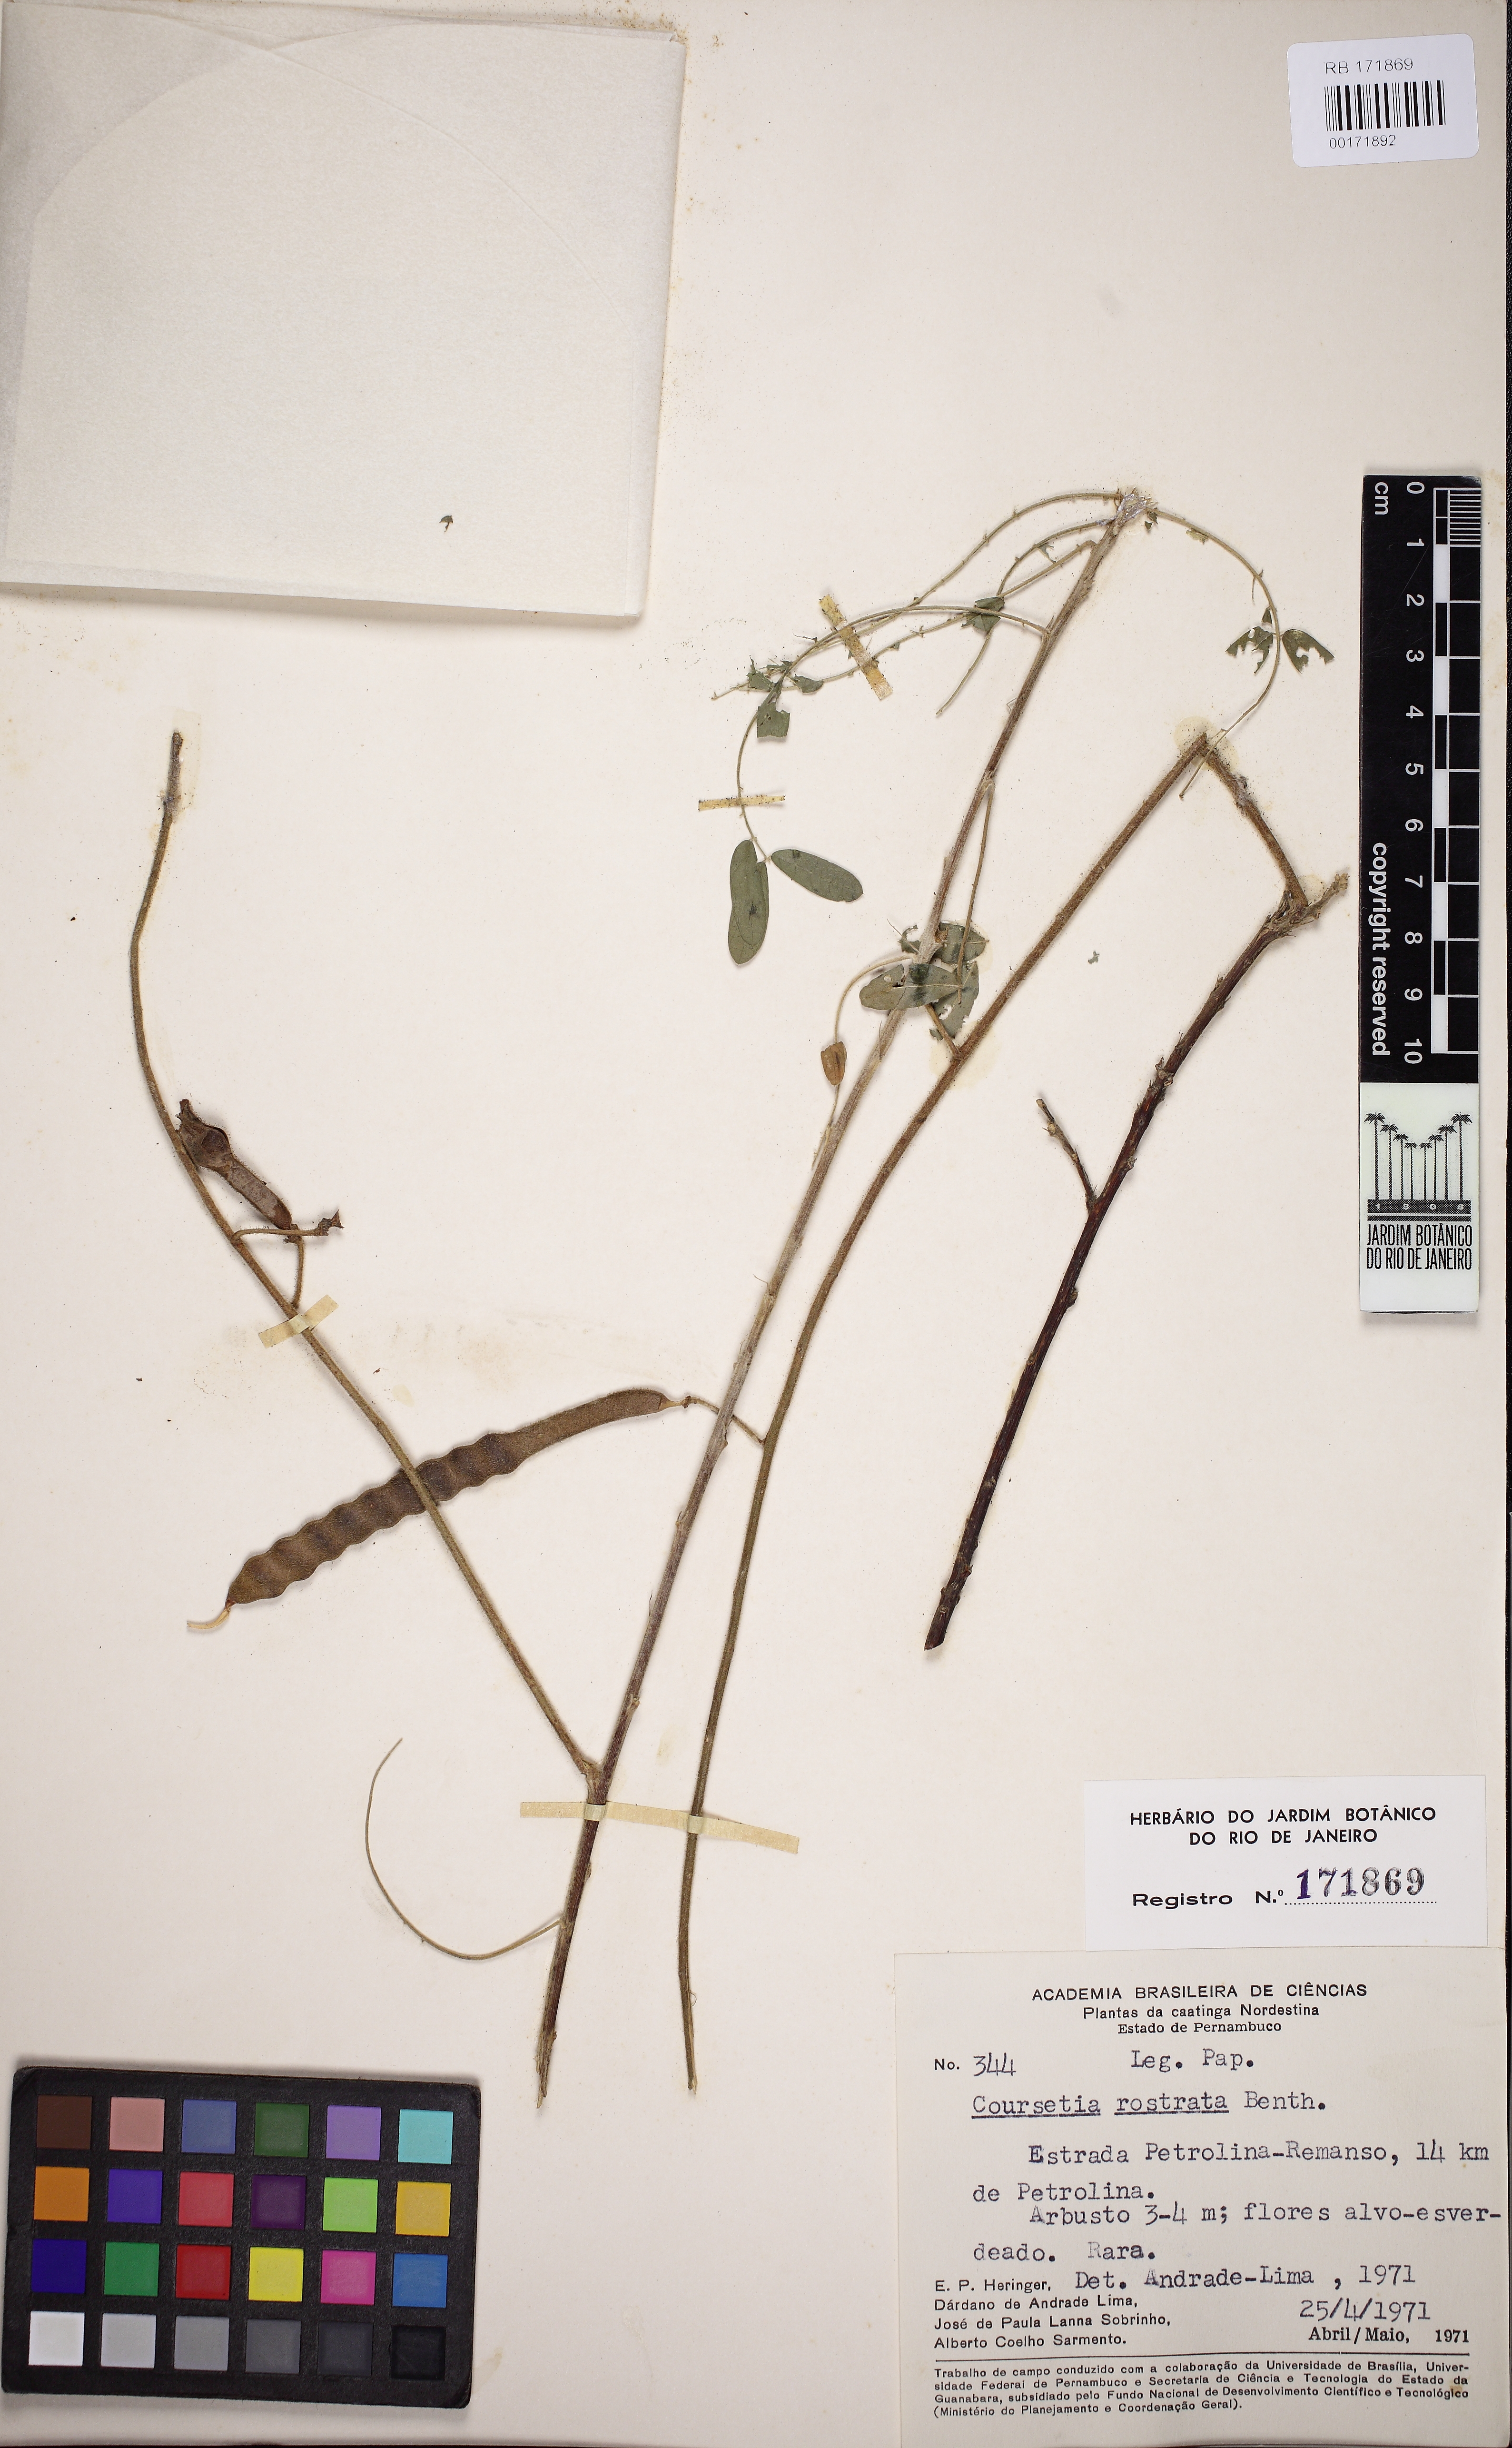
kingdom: Plantae
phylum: Tracheophyta
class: Magnoliopsida
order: Fabales
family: Fabaceae
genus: Coursetia
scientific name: Coursetia rostrata
